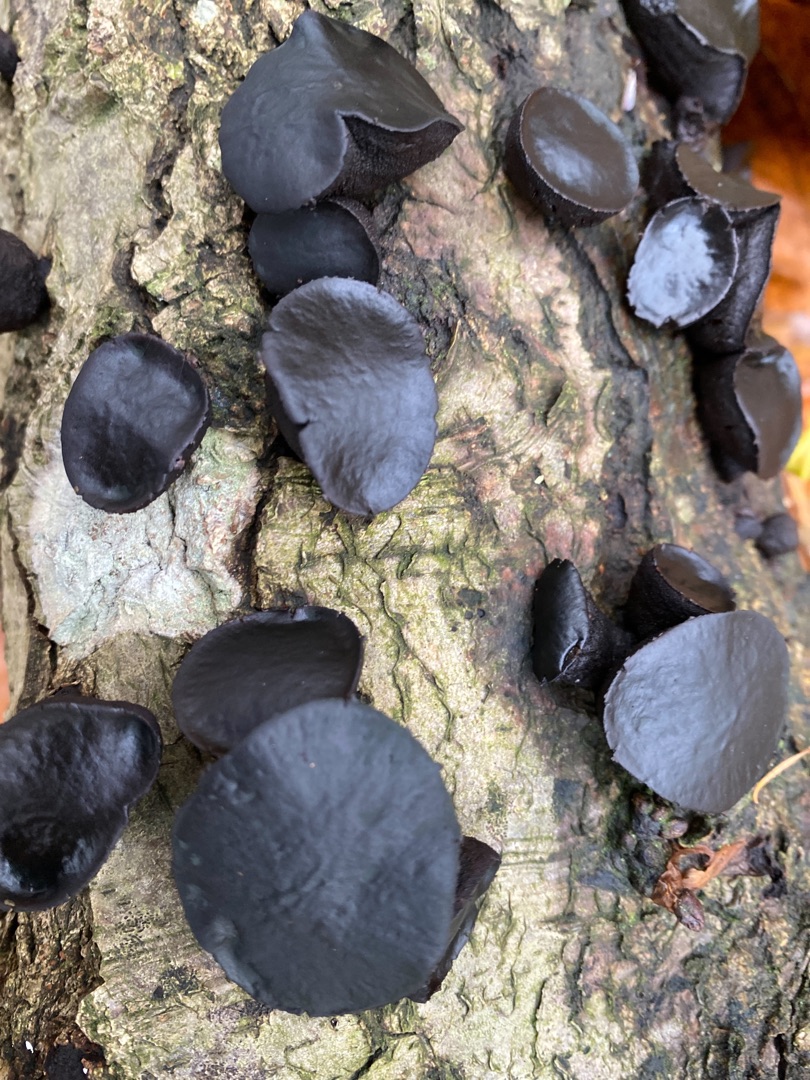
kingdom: Fungi
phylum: Ascomycota
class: Leotiomycetes
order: Phacidiales
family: Phacidiaceae
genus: Bulgaria
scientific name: Bulgaria inquinans
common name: Afsmittende topsvamp
